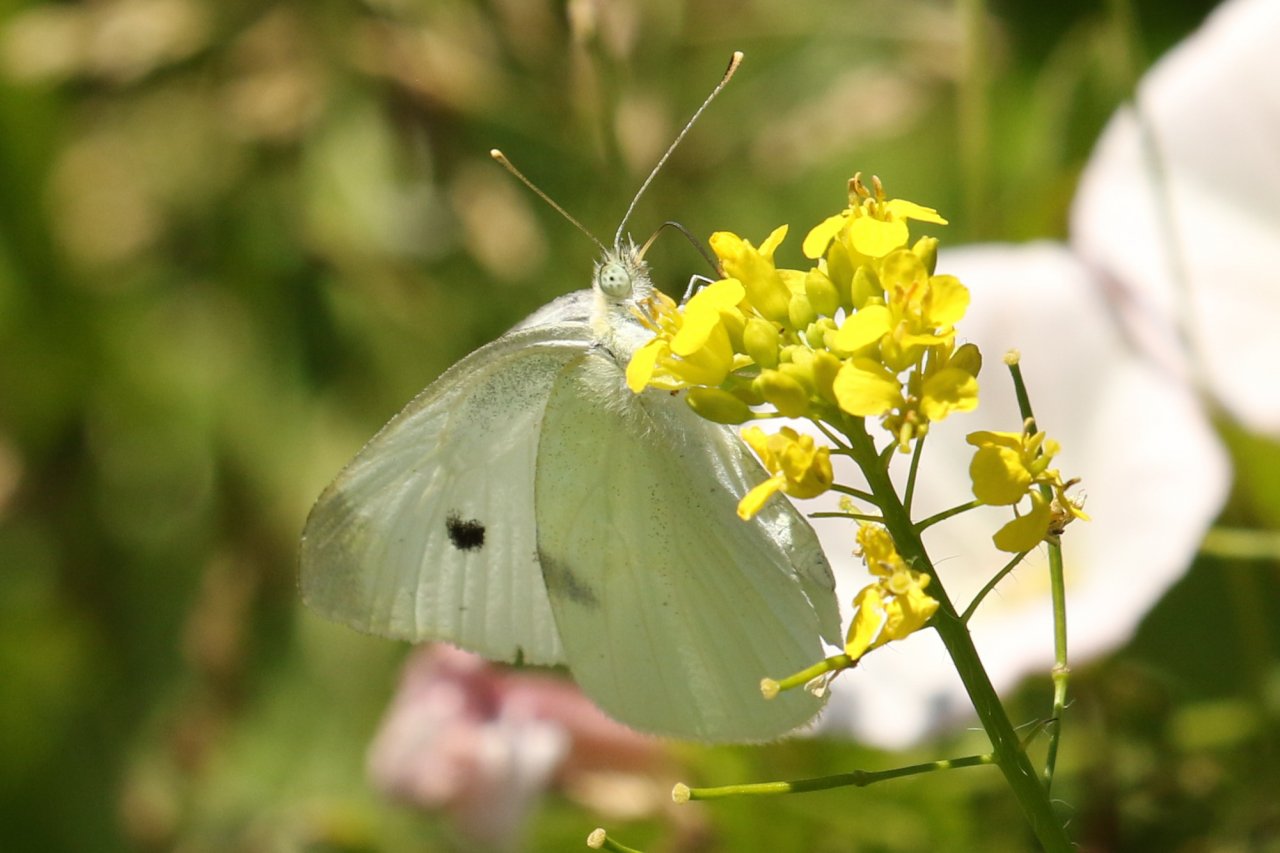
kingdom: Animalia
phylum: Arthropoda
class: Insecta
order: Lepidoptera
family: Pieridae
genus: Pieris
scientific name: Pieris rapae
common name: Cabbage White
